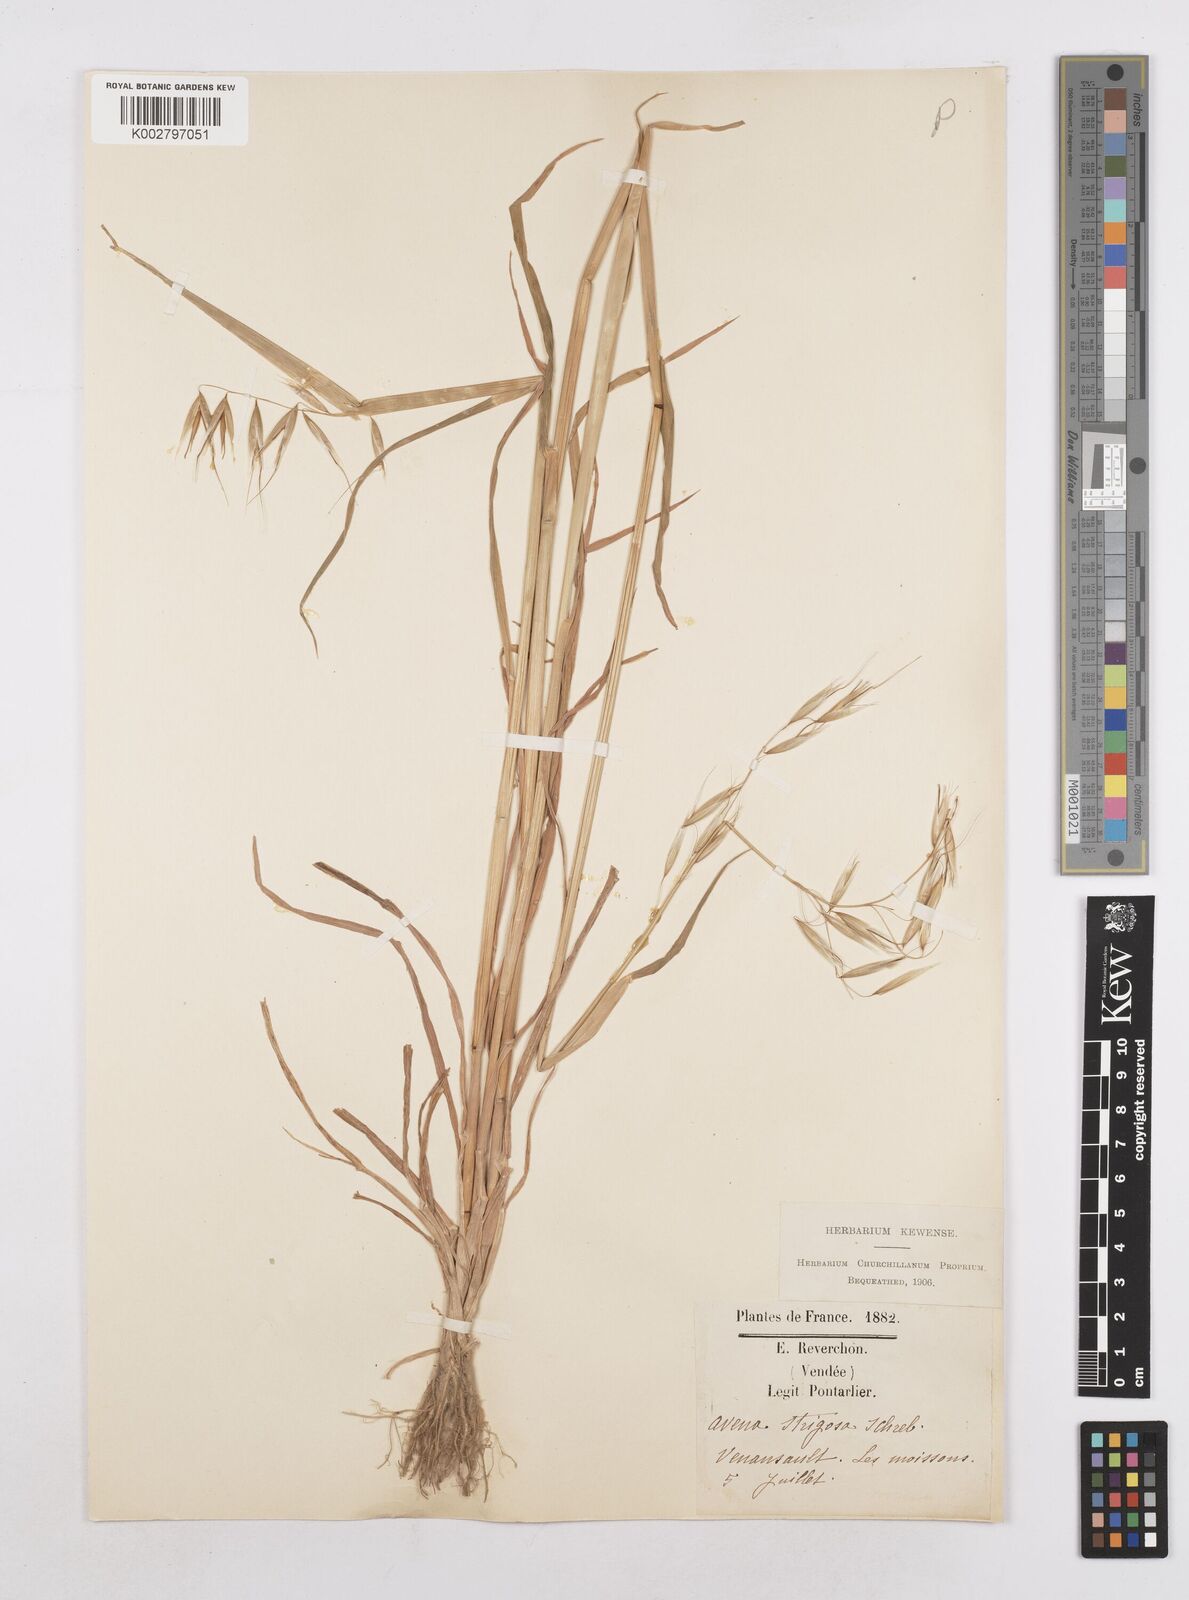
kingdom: Plantae
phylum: Tracheophyta
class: Liliopsida
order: Poales
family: Poaceae
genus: Avena
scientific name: Avena strigosa
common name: Bristle oat
